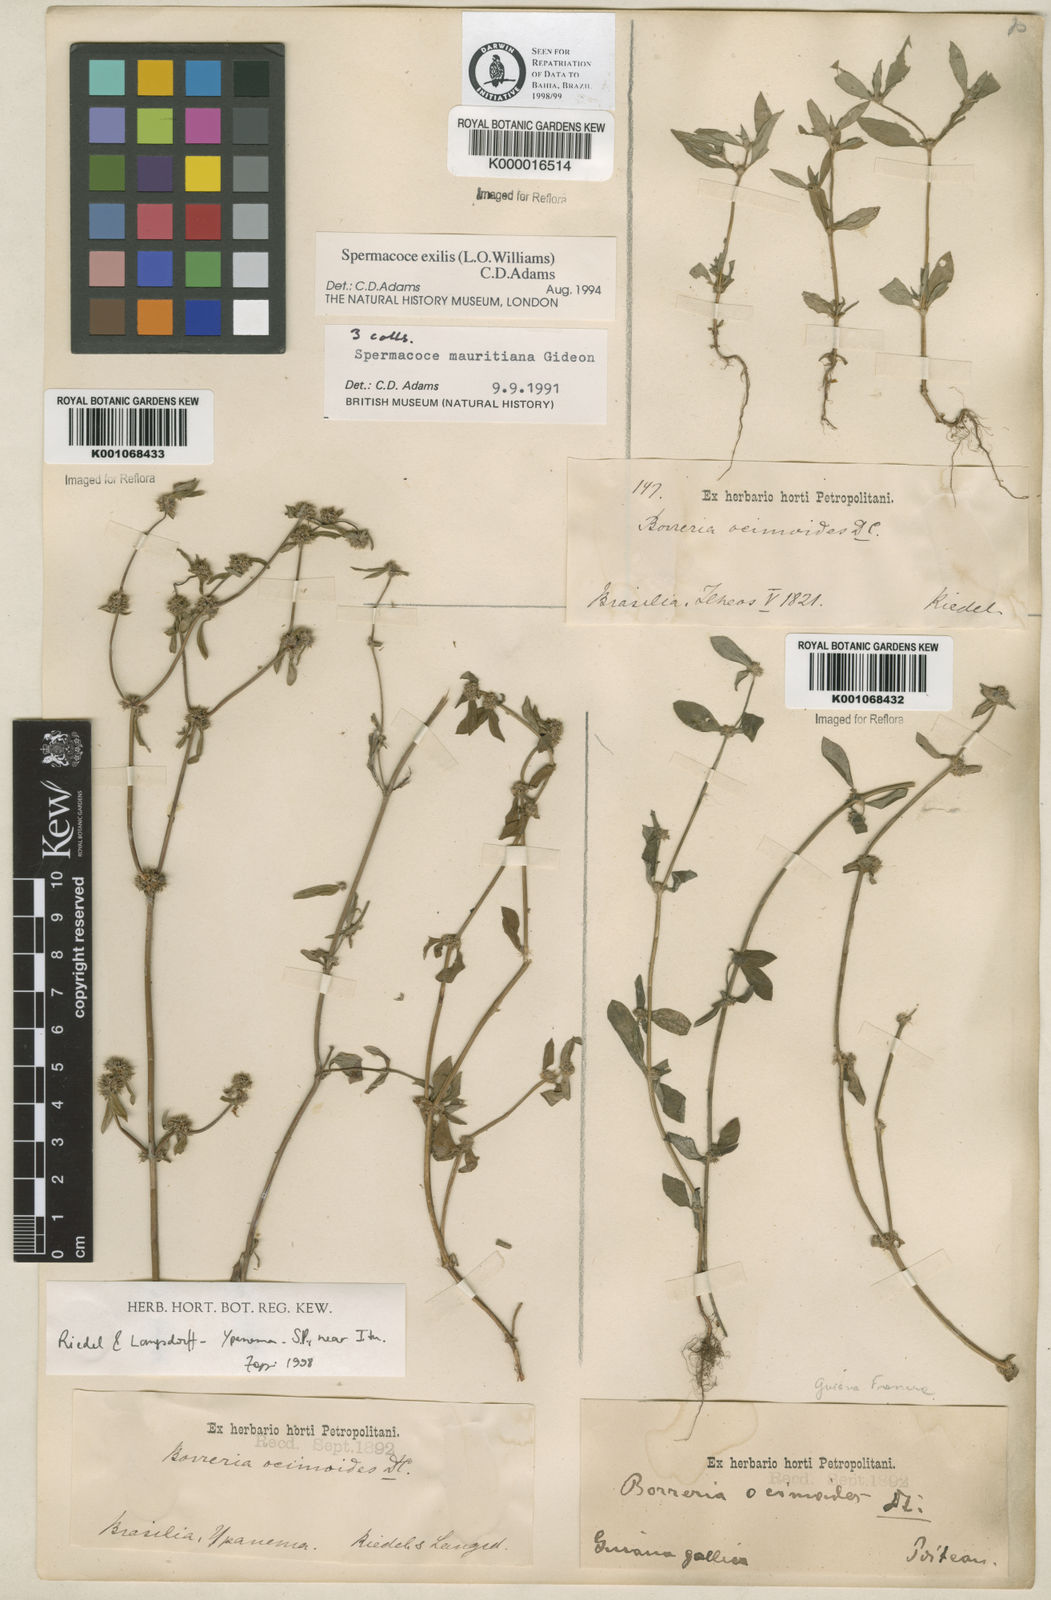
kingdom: Plantae
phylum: Tracheophyta
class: Magnoliopsida
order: Gentianales
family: Rubiaceae
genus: Spermacoce
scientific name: Spermacoce ocymoides
